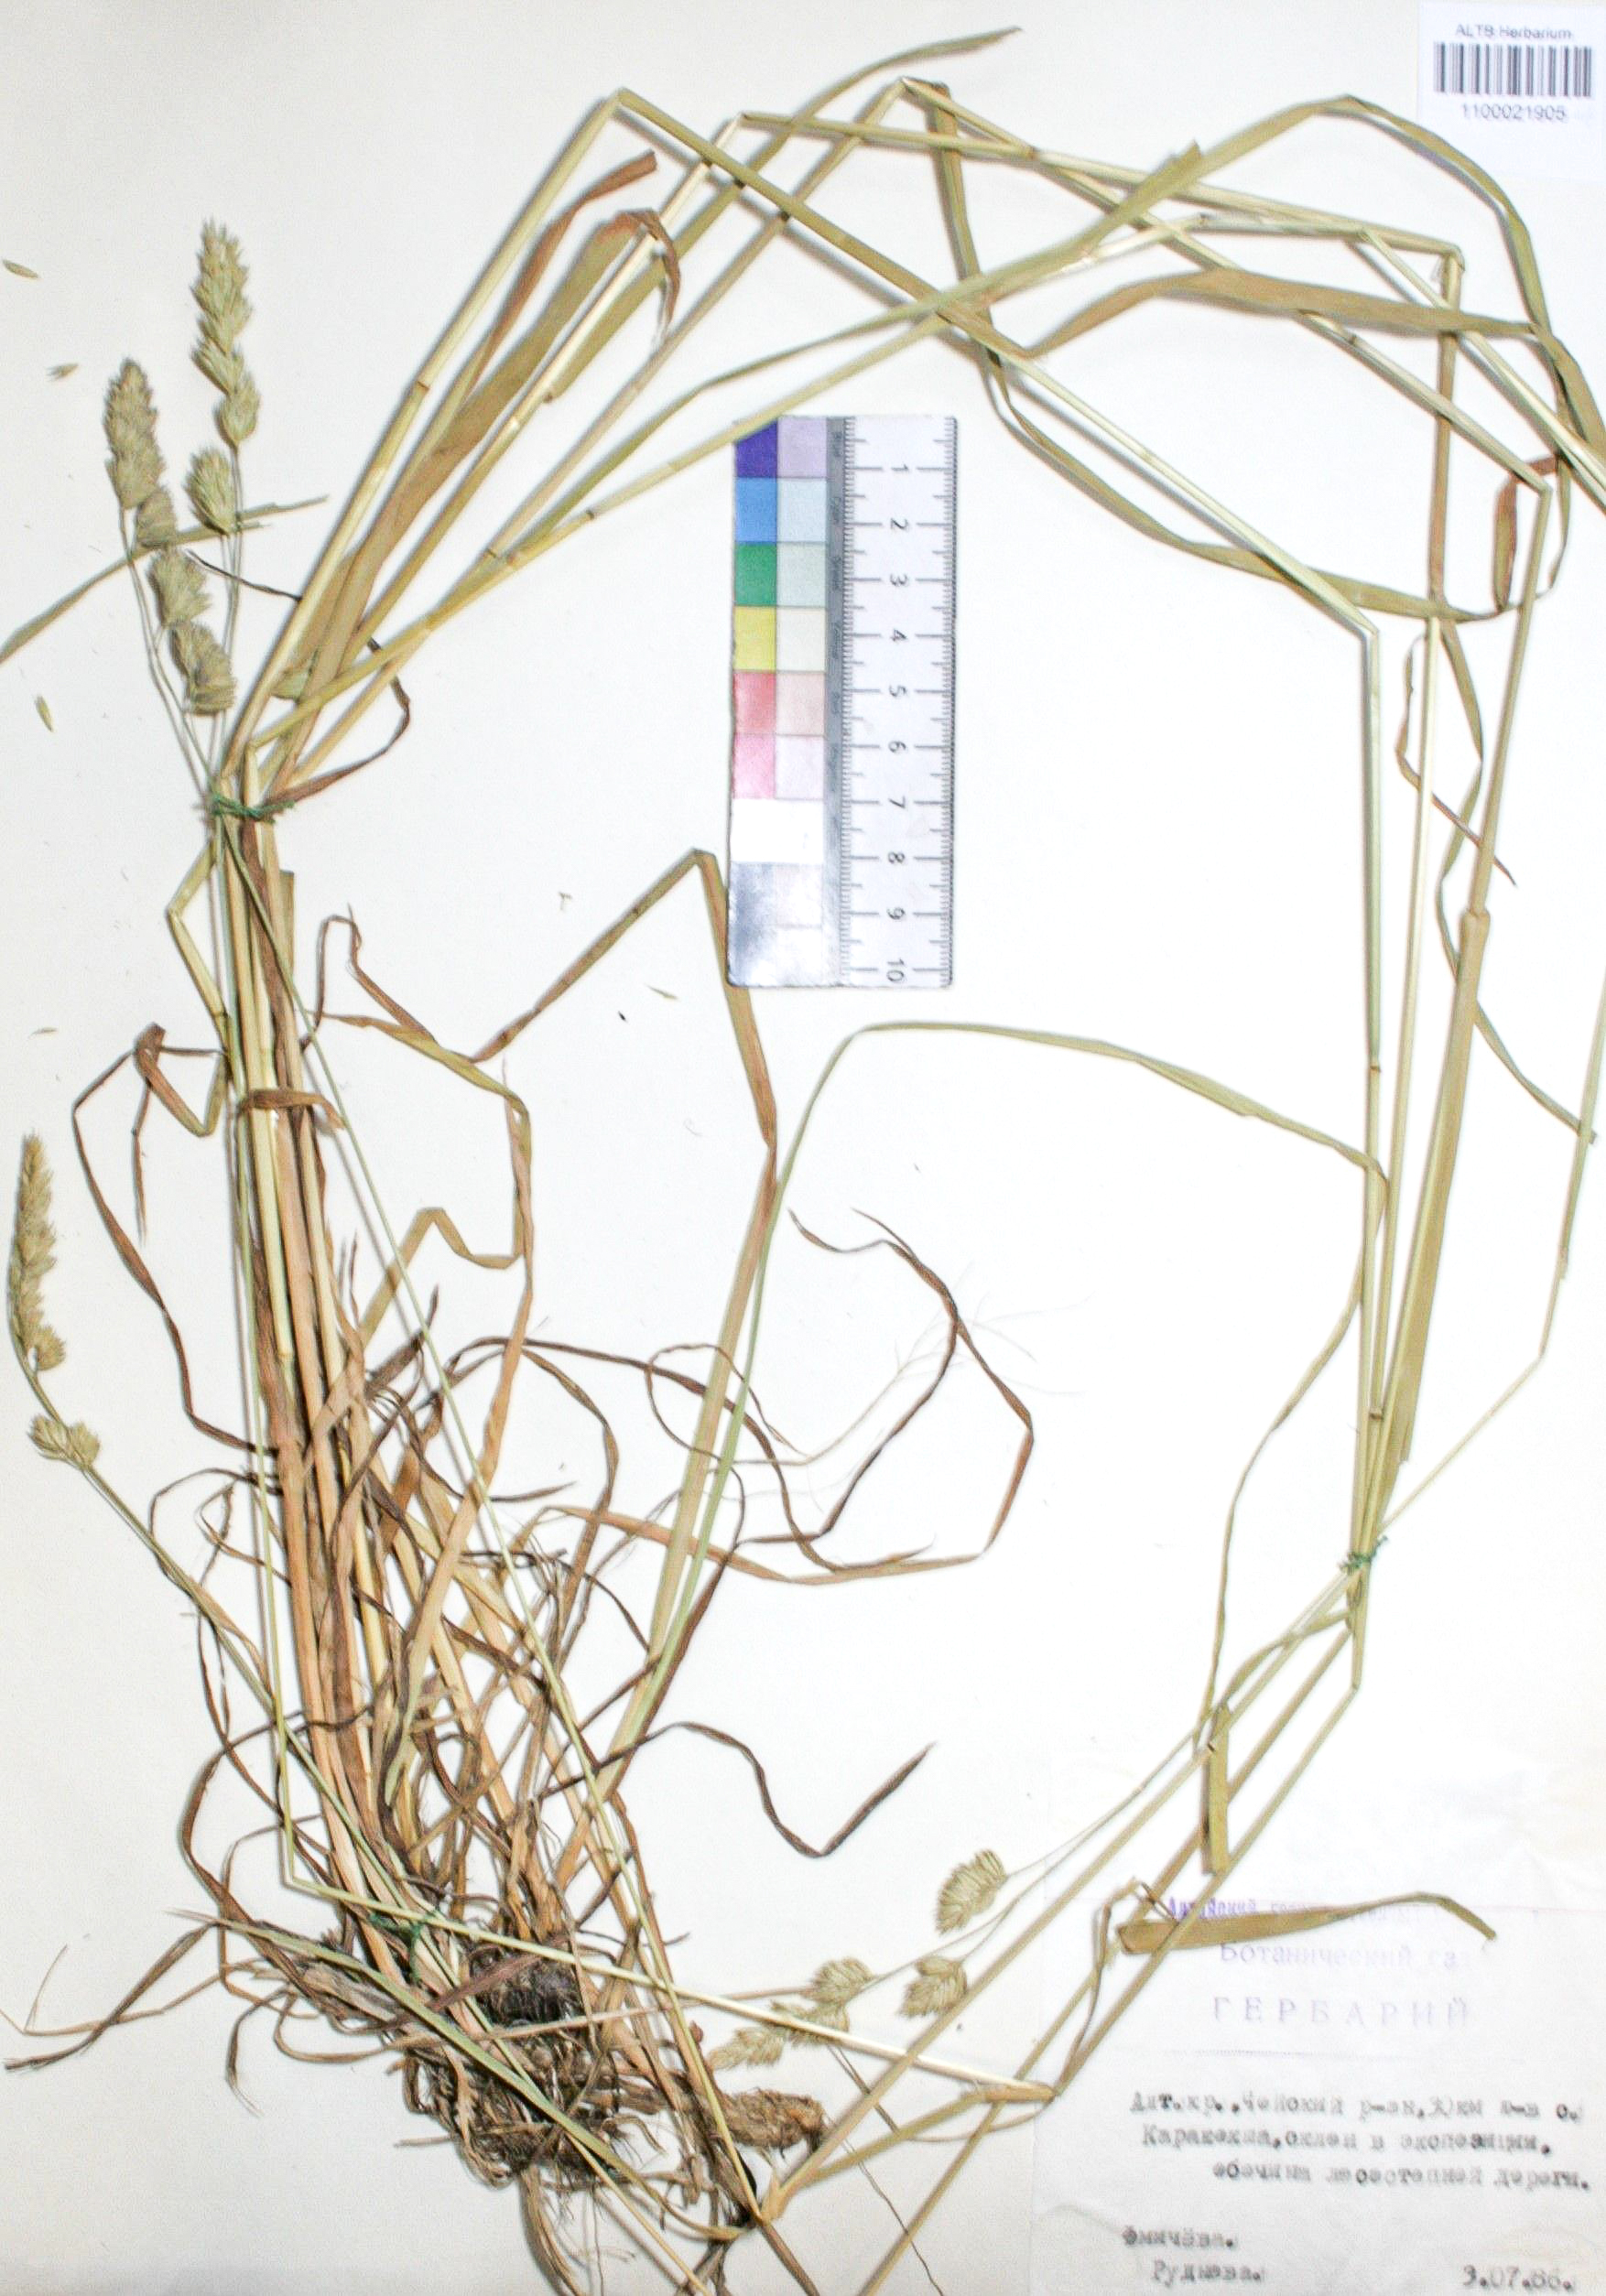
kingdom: Plantae
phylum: Tracheophyta
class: Liliopsida
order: Poales
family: Poaceae
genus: Dactylis
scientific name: Dactylis glomerata
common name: Orchardgrass
